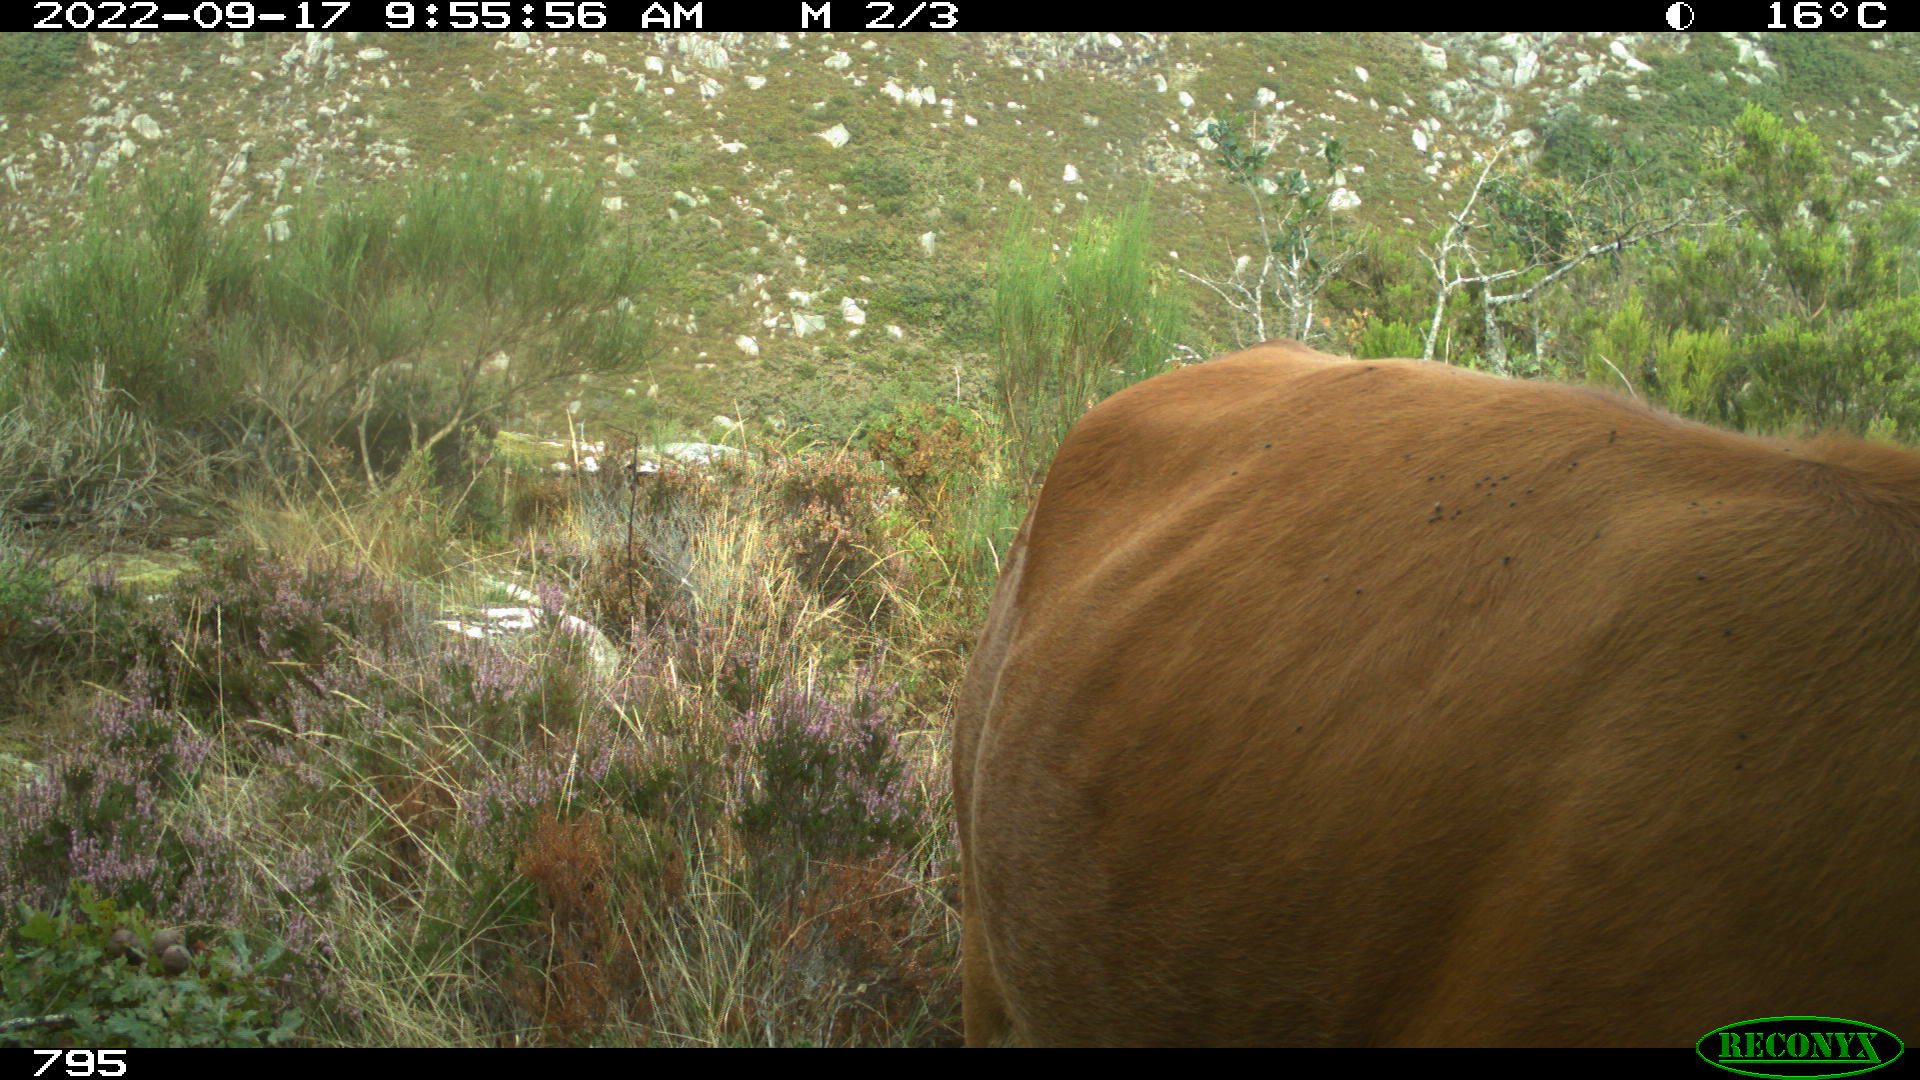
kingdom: Animalia
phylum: Chordata
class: Mammalia
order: Artiodactyla
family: Bovidae
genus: Bos
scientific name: Bos taurus
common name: Domesticated cattle
